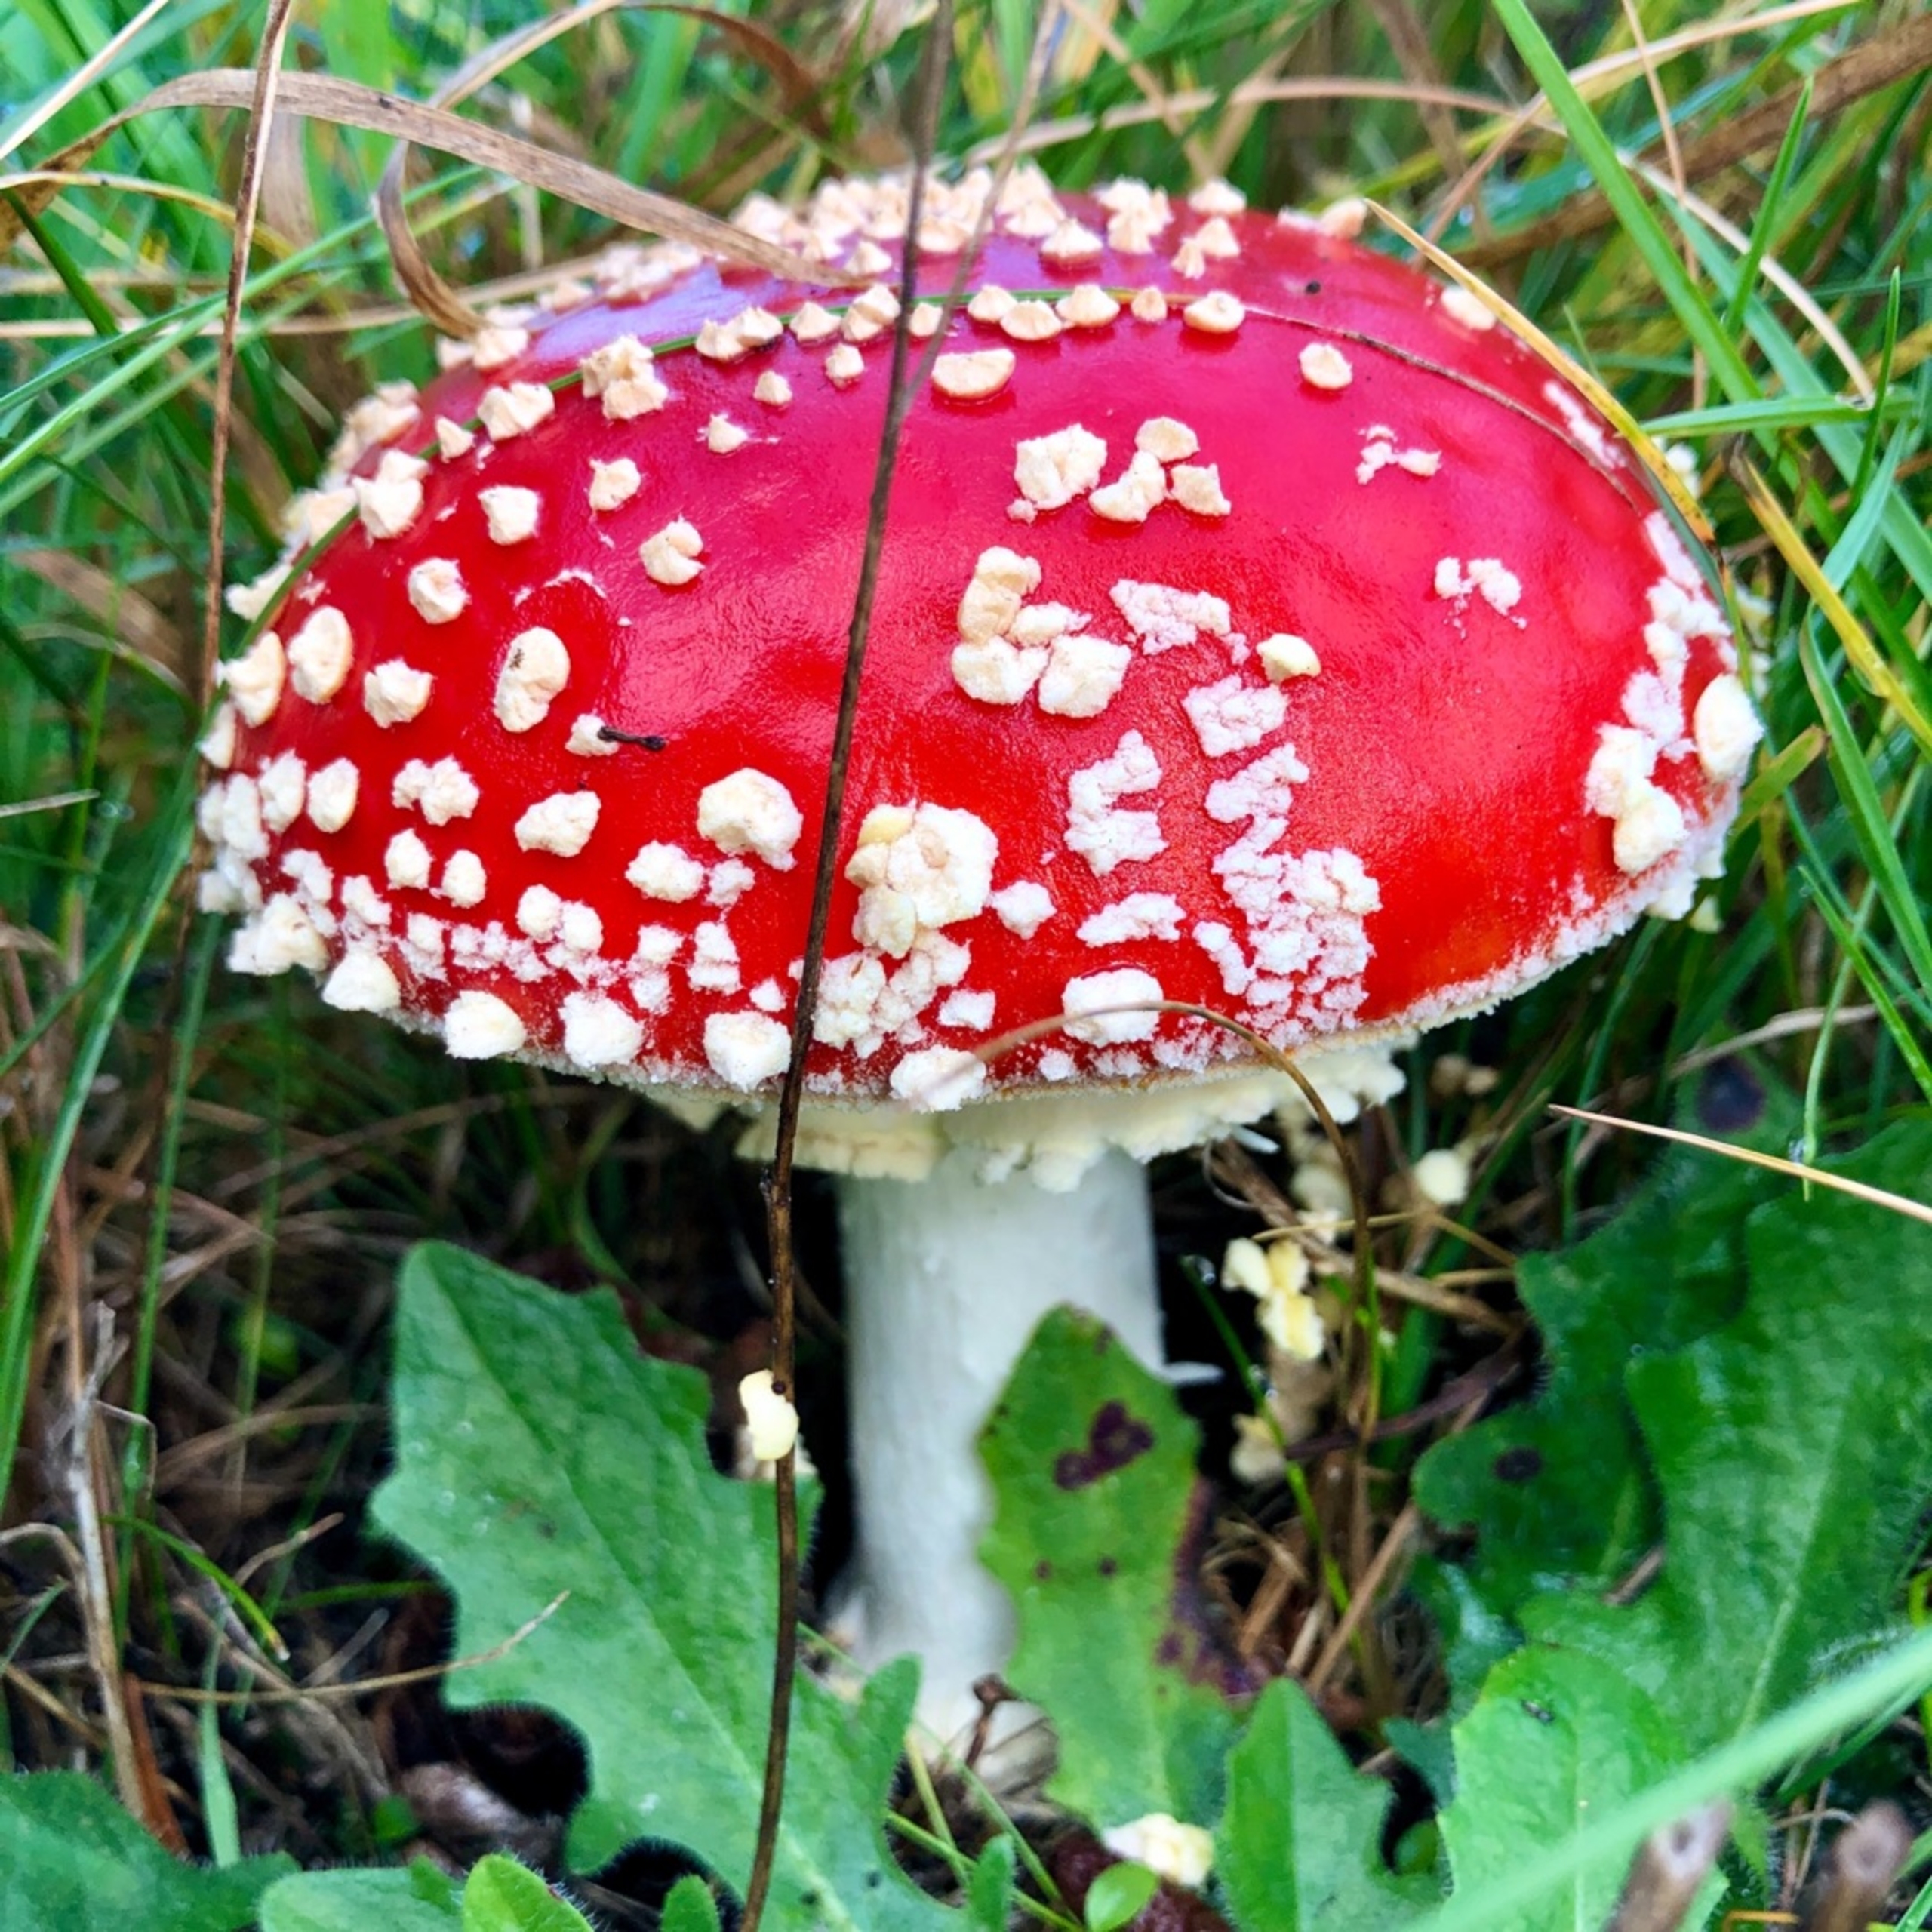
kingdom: Fungi
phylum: Basidiomycota
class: Agaricomycetes
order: Agaricales
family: Amanitaceae
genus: Amanita
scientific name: Amanita muscaria
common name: Rød fluesvamp
